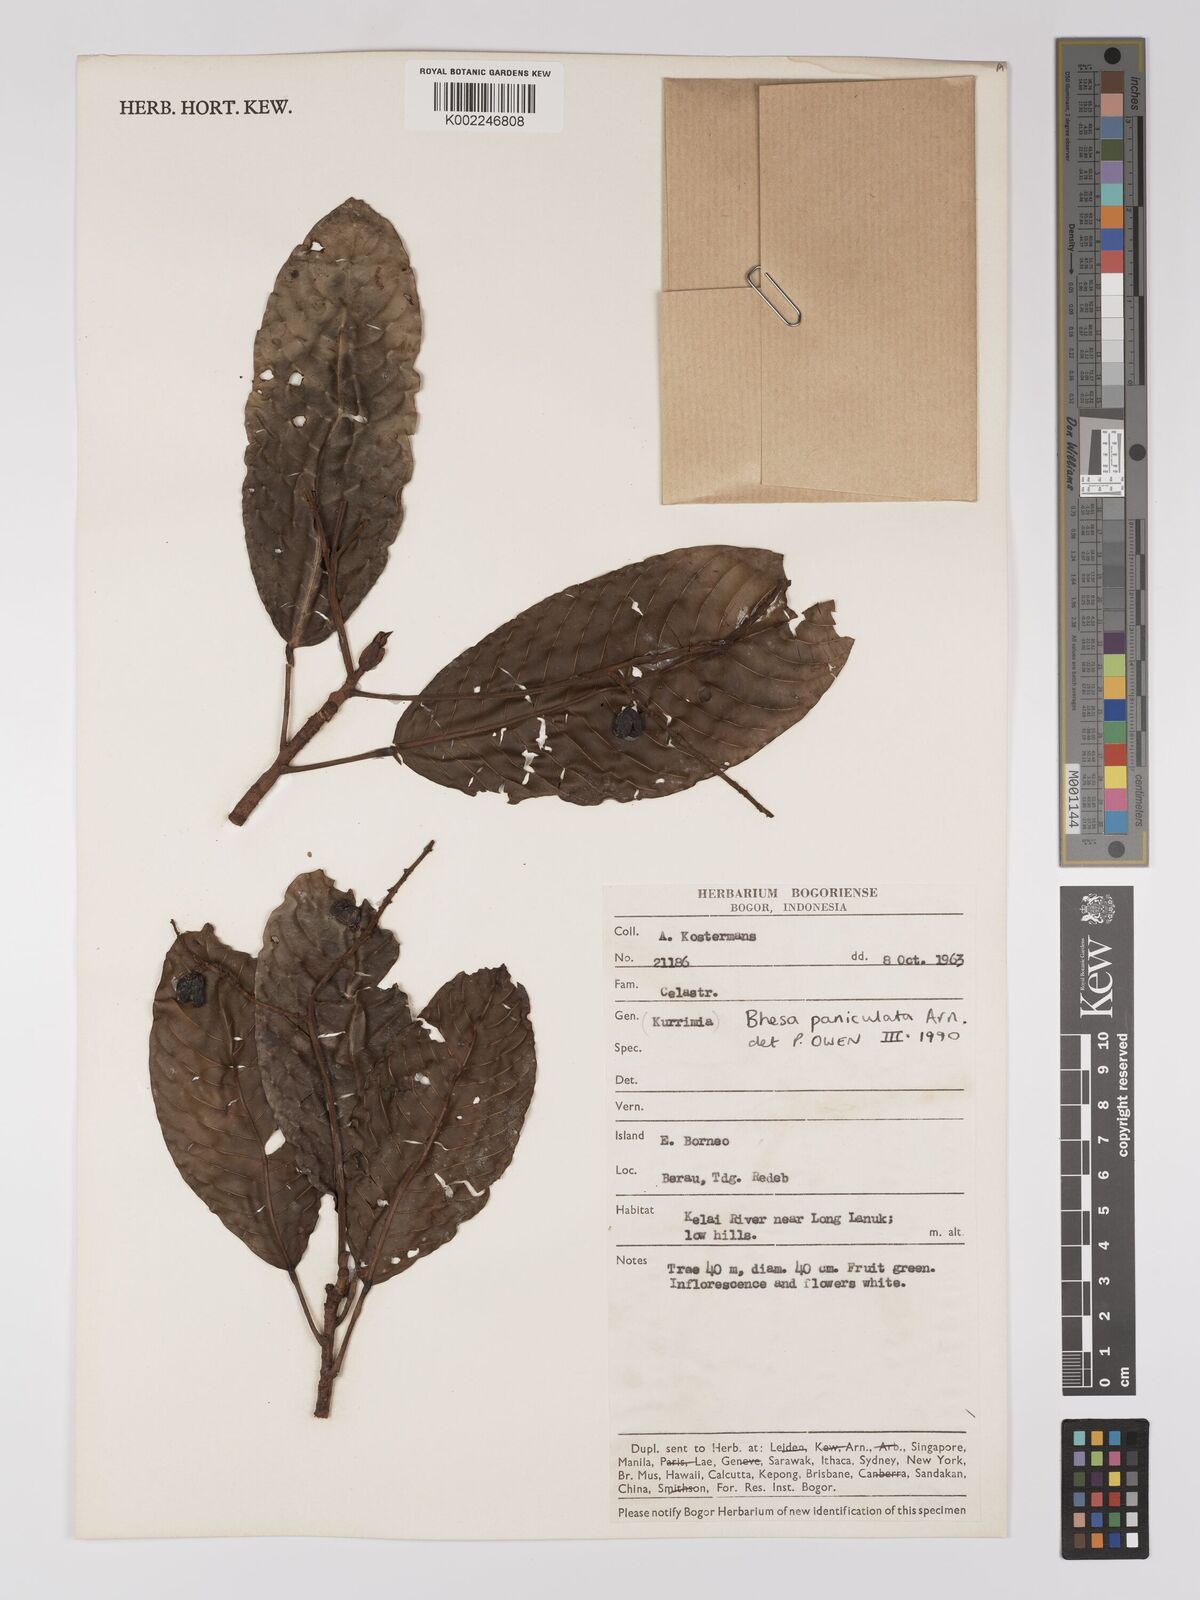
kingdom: Plantae
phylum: Tracheophyta
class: Magnoliopsida
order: Malpighiales
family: Centroplacaceae
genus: Bhesa
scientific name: Bhesa paniculata
